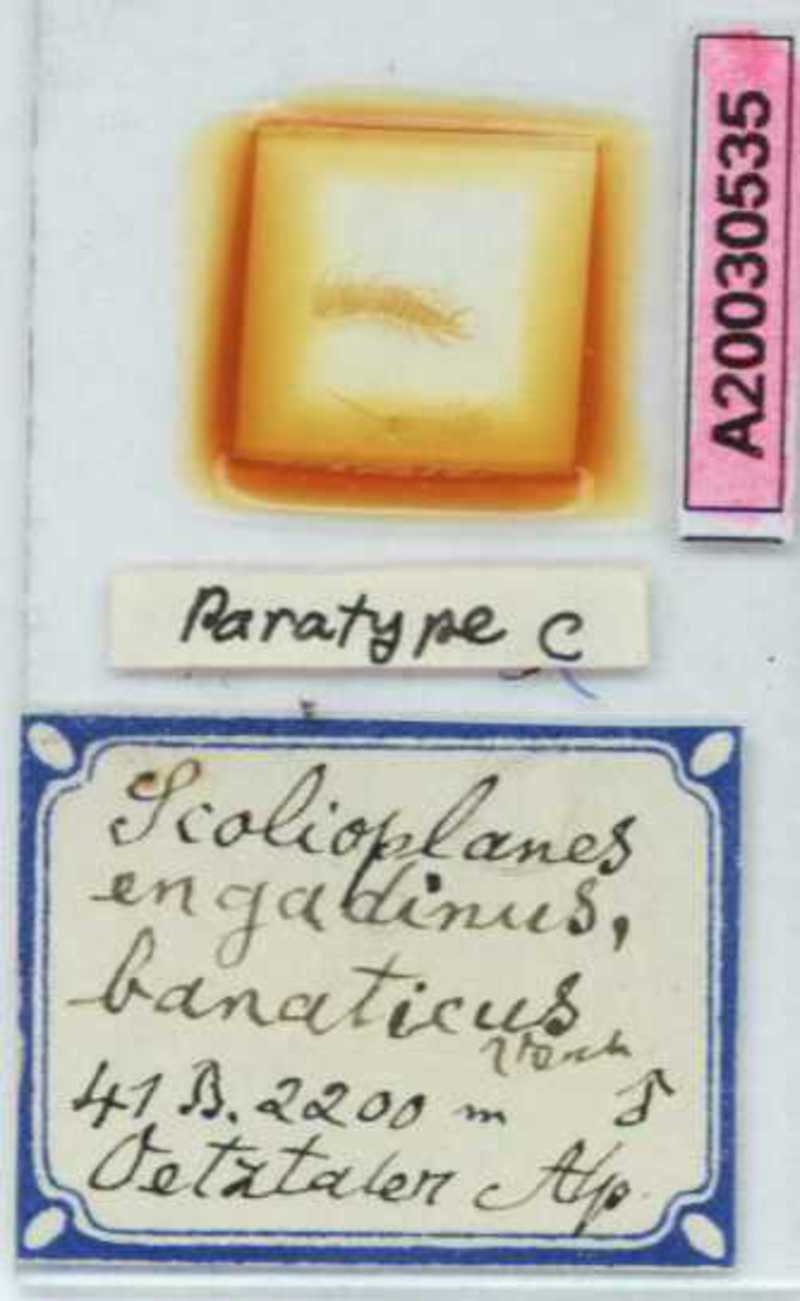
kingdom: Animalia
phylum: Arthropoda
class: Chilopoda
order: Geophilomorpha
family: Linotaeniidae
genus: Strigamia
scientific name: Strigamia engadina
